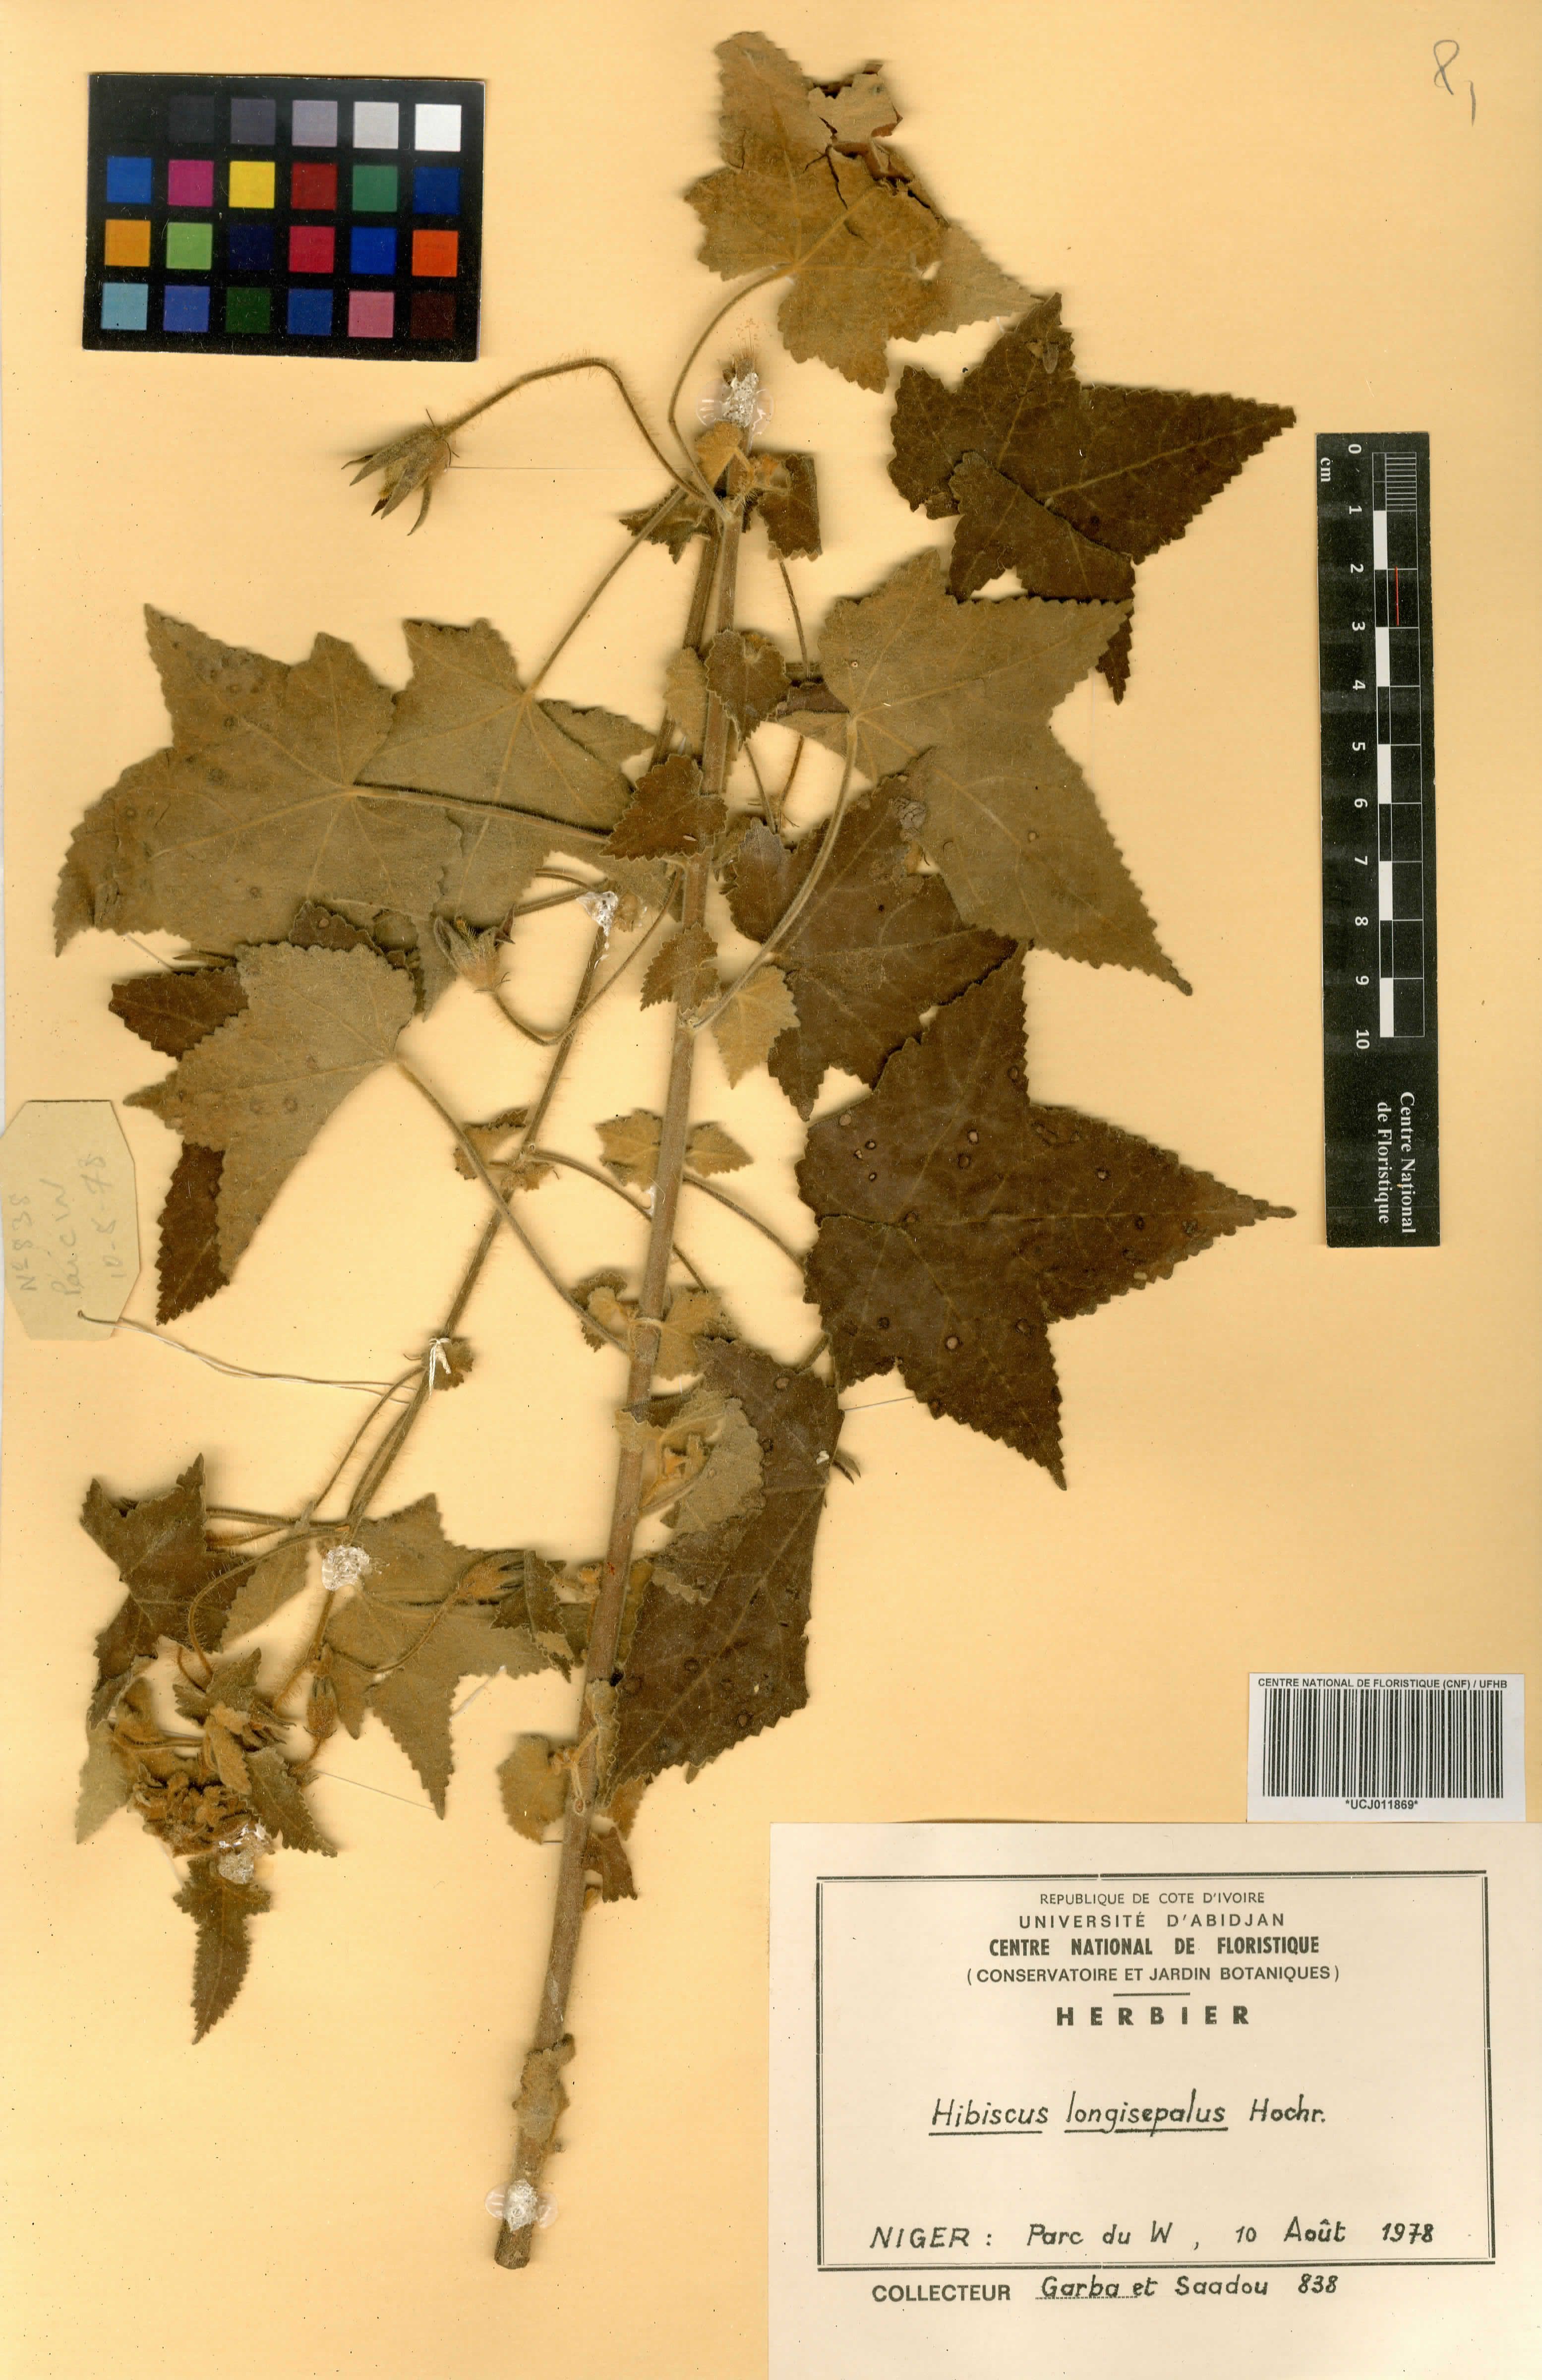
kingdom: Plantae
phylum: Tracheophyta
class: Magnoliopsida
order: Malvales
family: Malvaceae
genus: Hibiscus
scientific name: Hibiscus longisepalus
